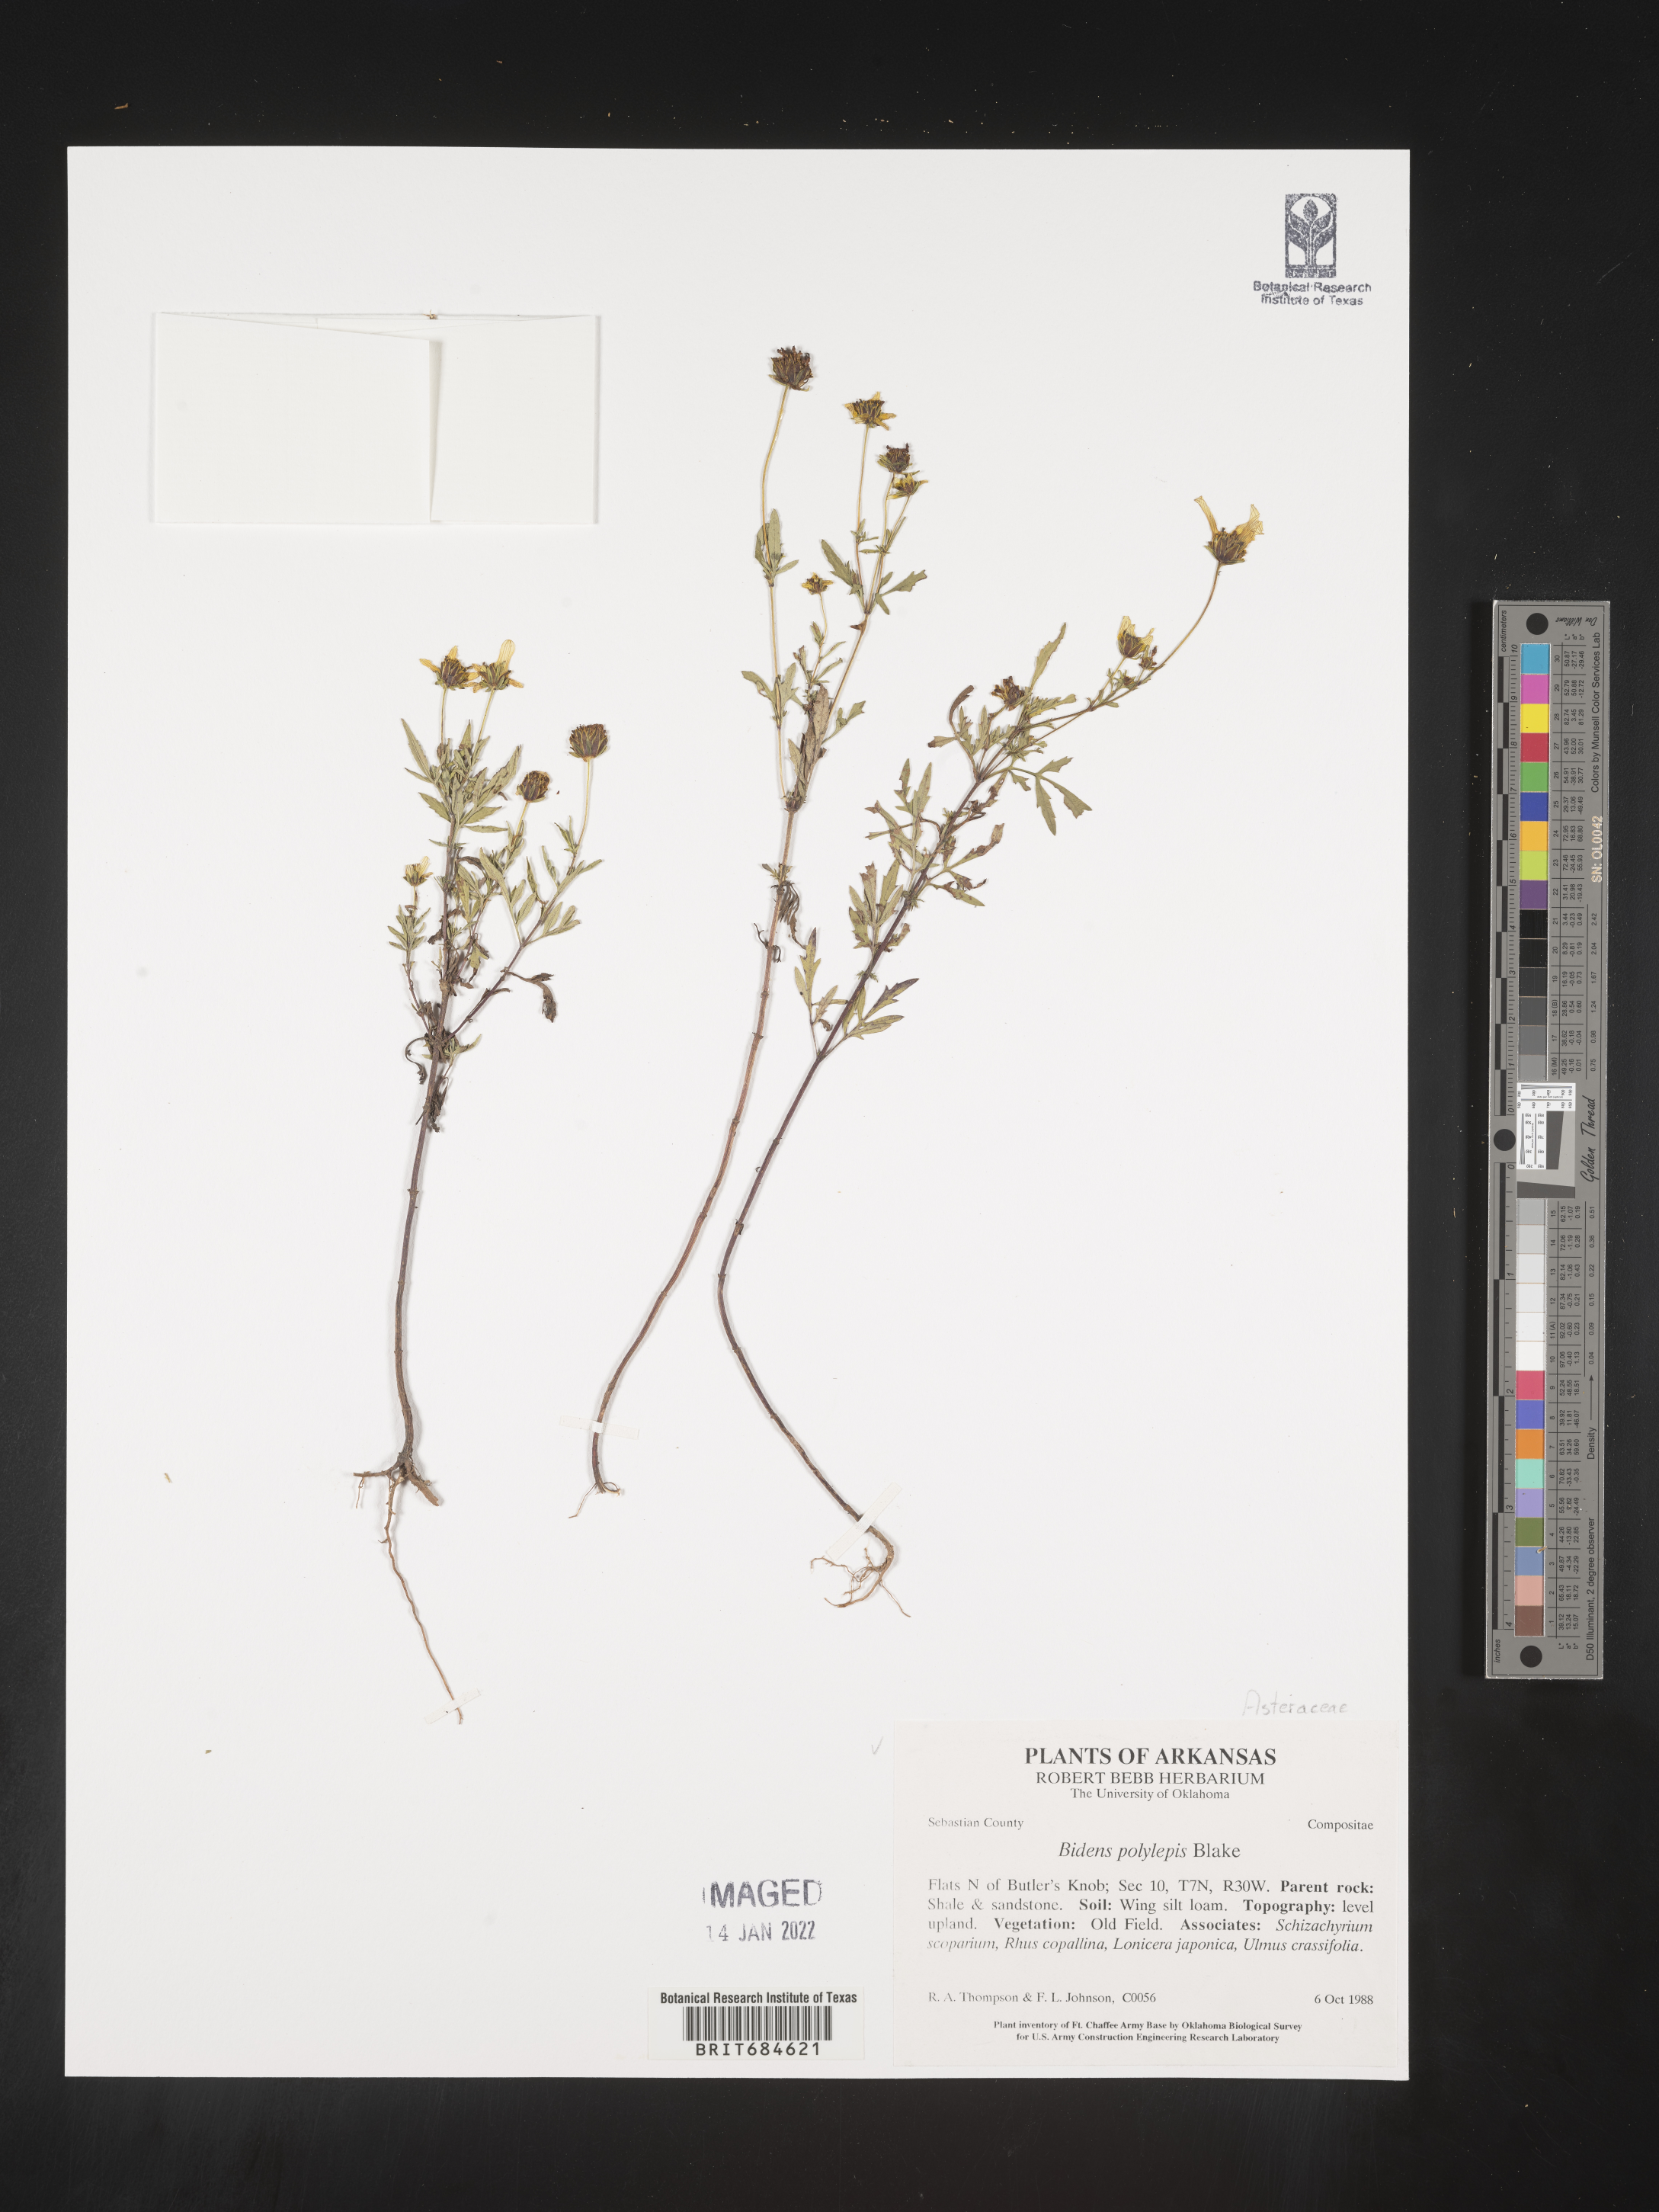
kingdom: Plantae
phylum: Tracheophyta
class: Magnoliopsida
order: Asterales
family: Asteraceae
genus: Bidens
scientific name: Bidens polylepis
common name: Awnless beggarticks
